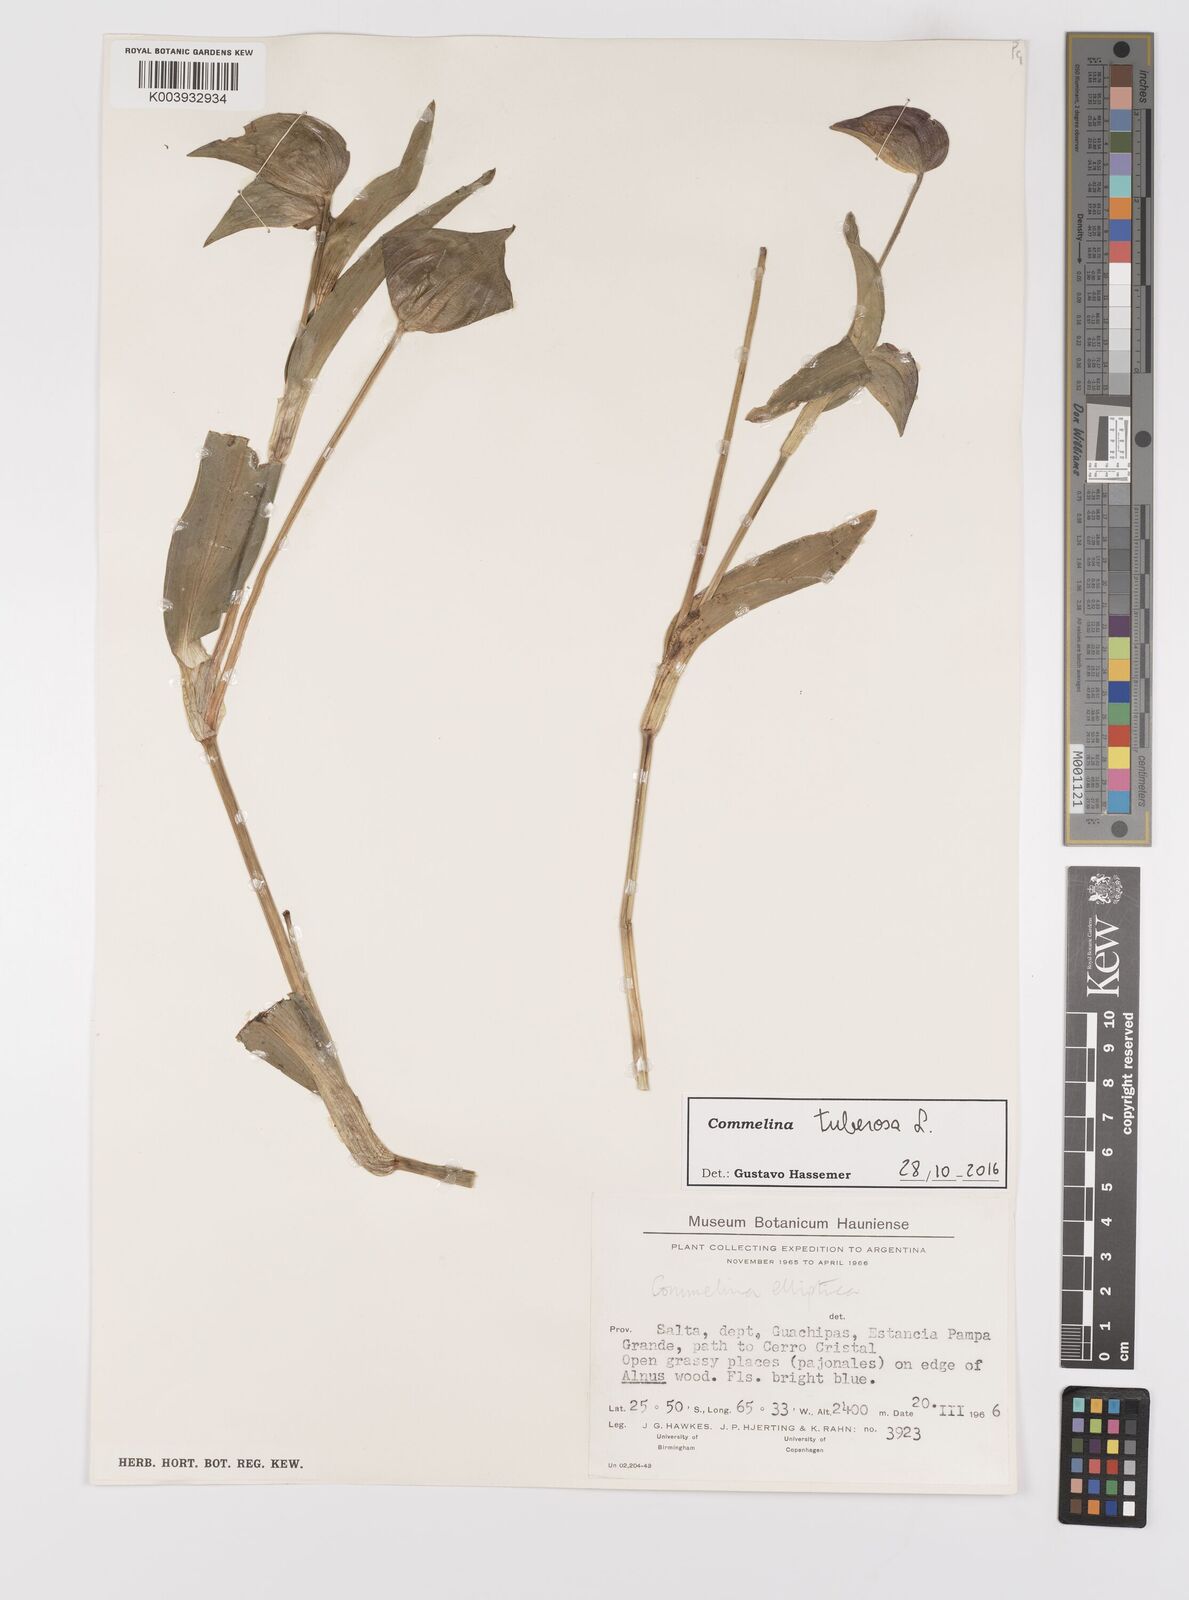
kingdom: Plantae
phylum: Tracheophyta
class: Liliopsida
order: Commelinales
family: Commelinaceae
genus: Commelina
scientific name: Commelina tuberosa
